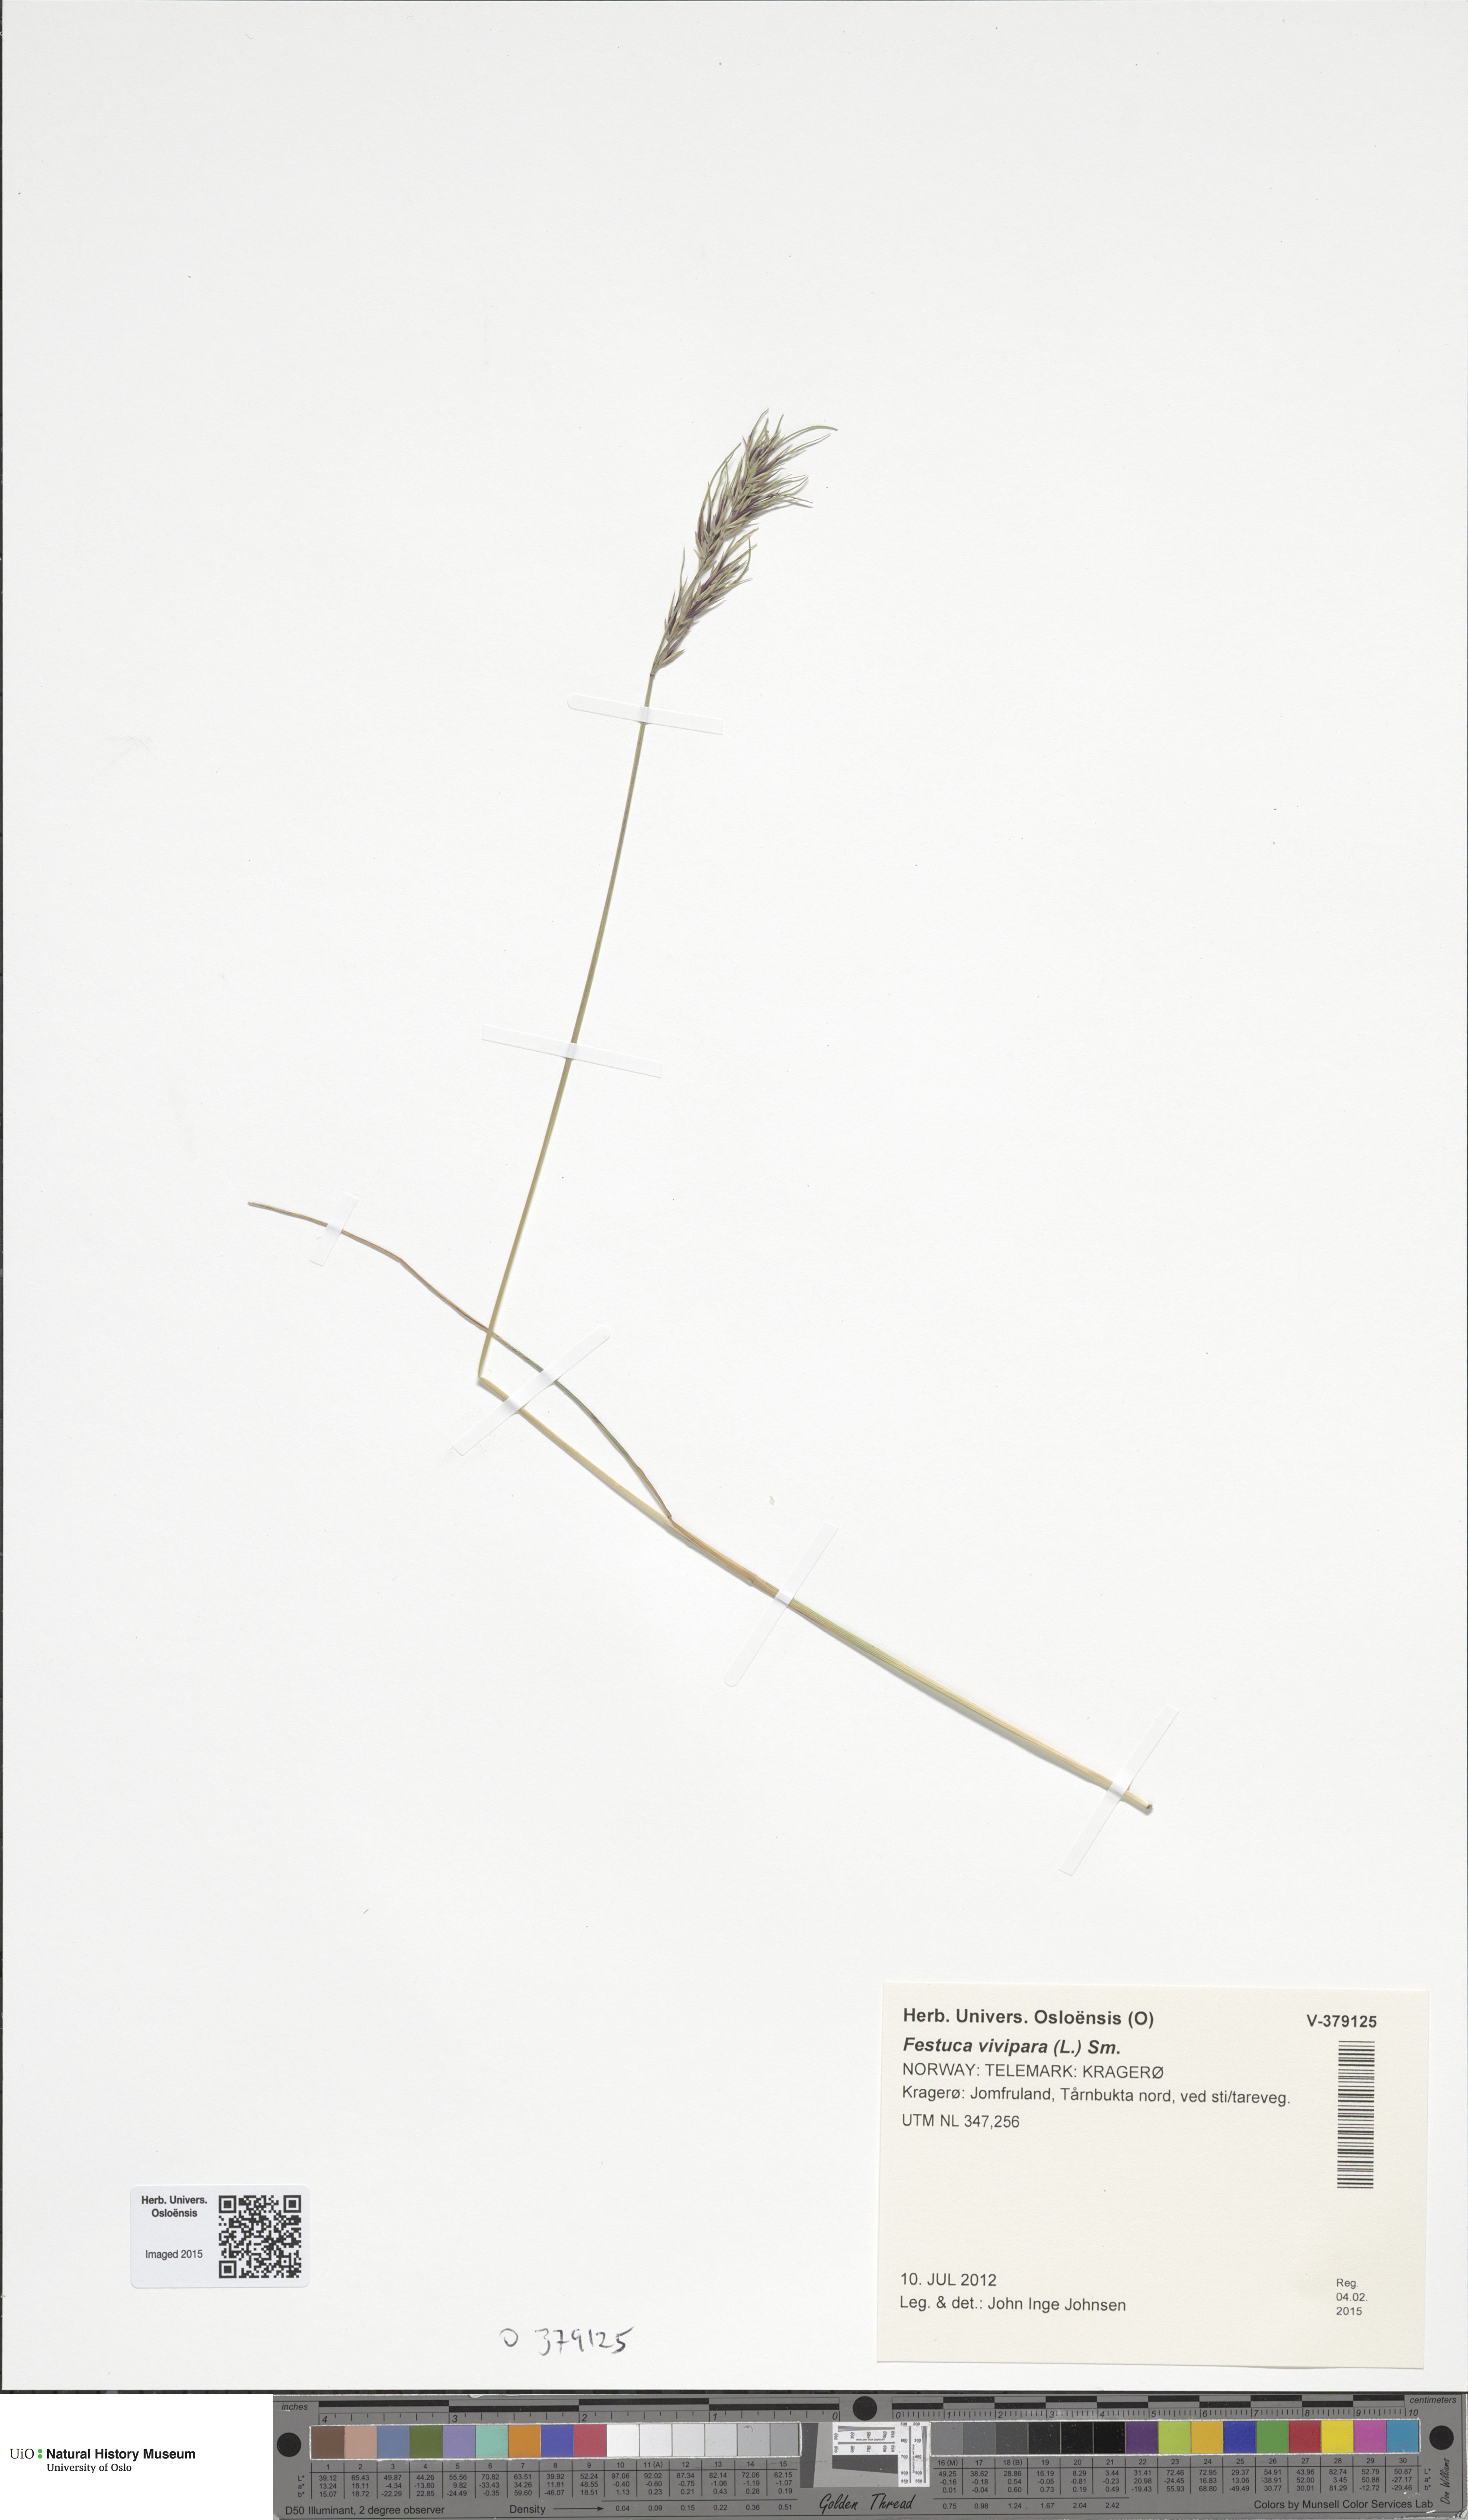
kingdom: Plantae
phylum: Tracheophyta
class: Liliopsida
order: Poales
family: Poaceae
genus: Festuca
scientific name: Festuca vivipara
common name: Viviparous sheep's-fescue
